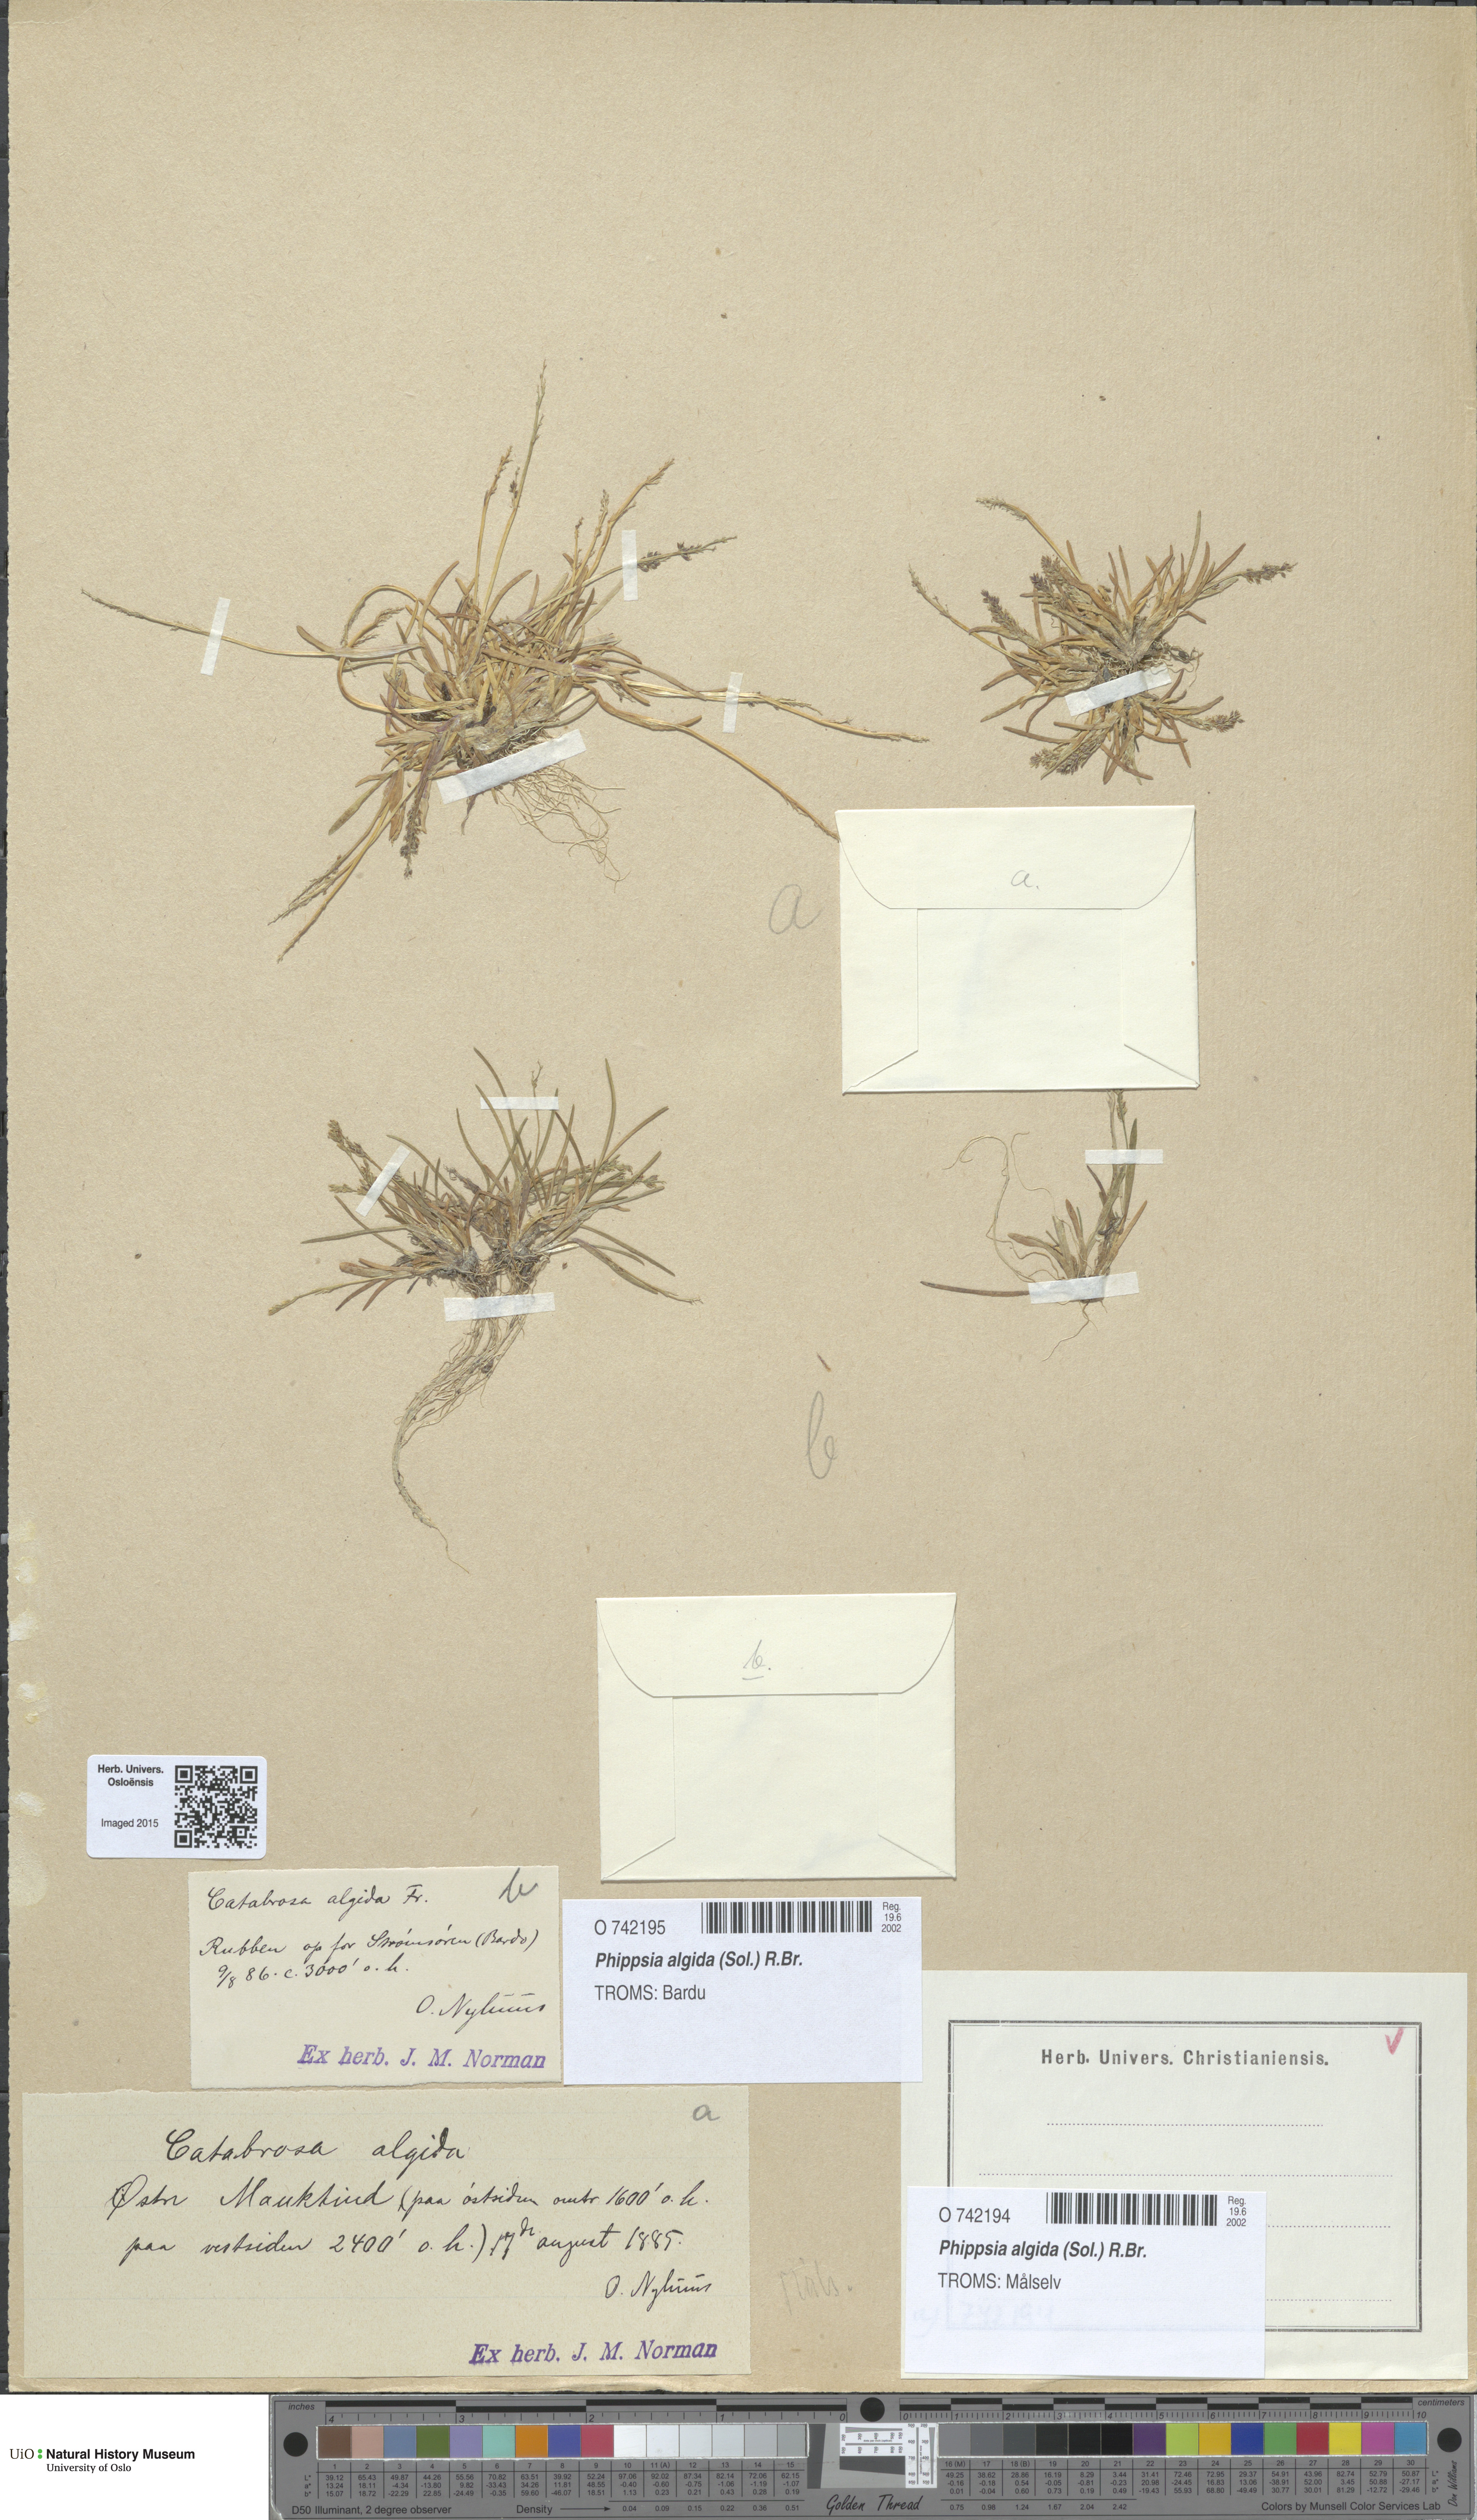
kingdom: Plantae
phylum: Tracheophyta
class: Liliopsida
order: Poales
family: Poaceae
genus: Phippsia
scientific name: Phippsia algida
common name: Ice grass
